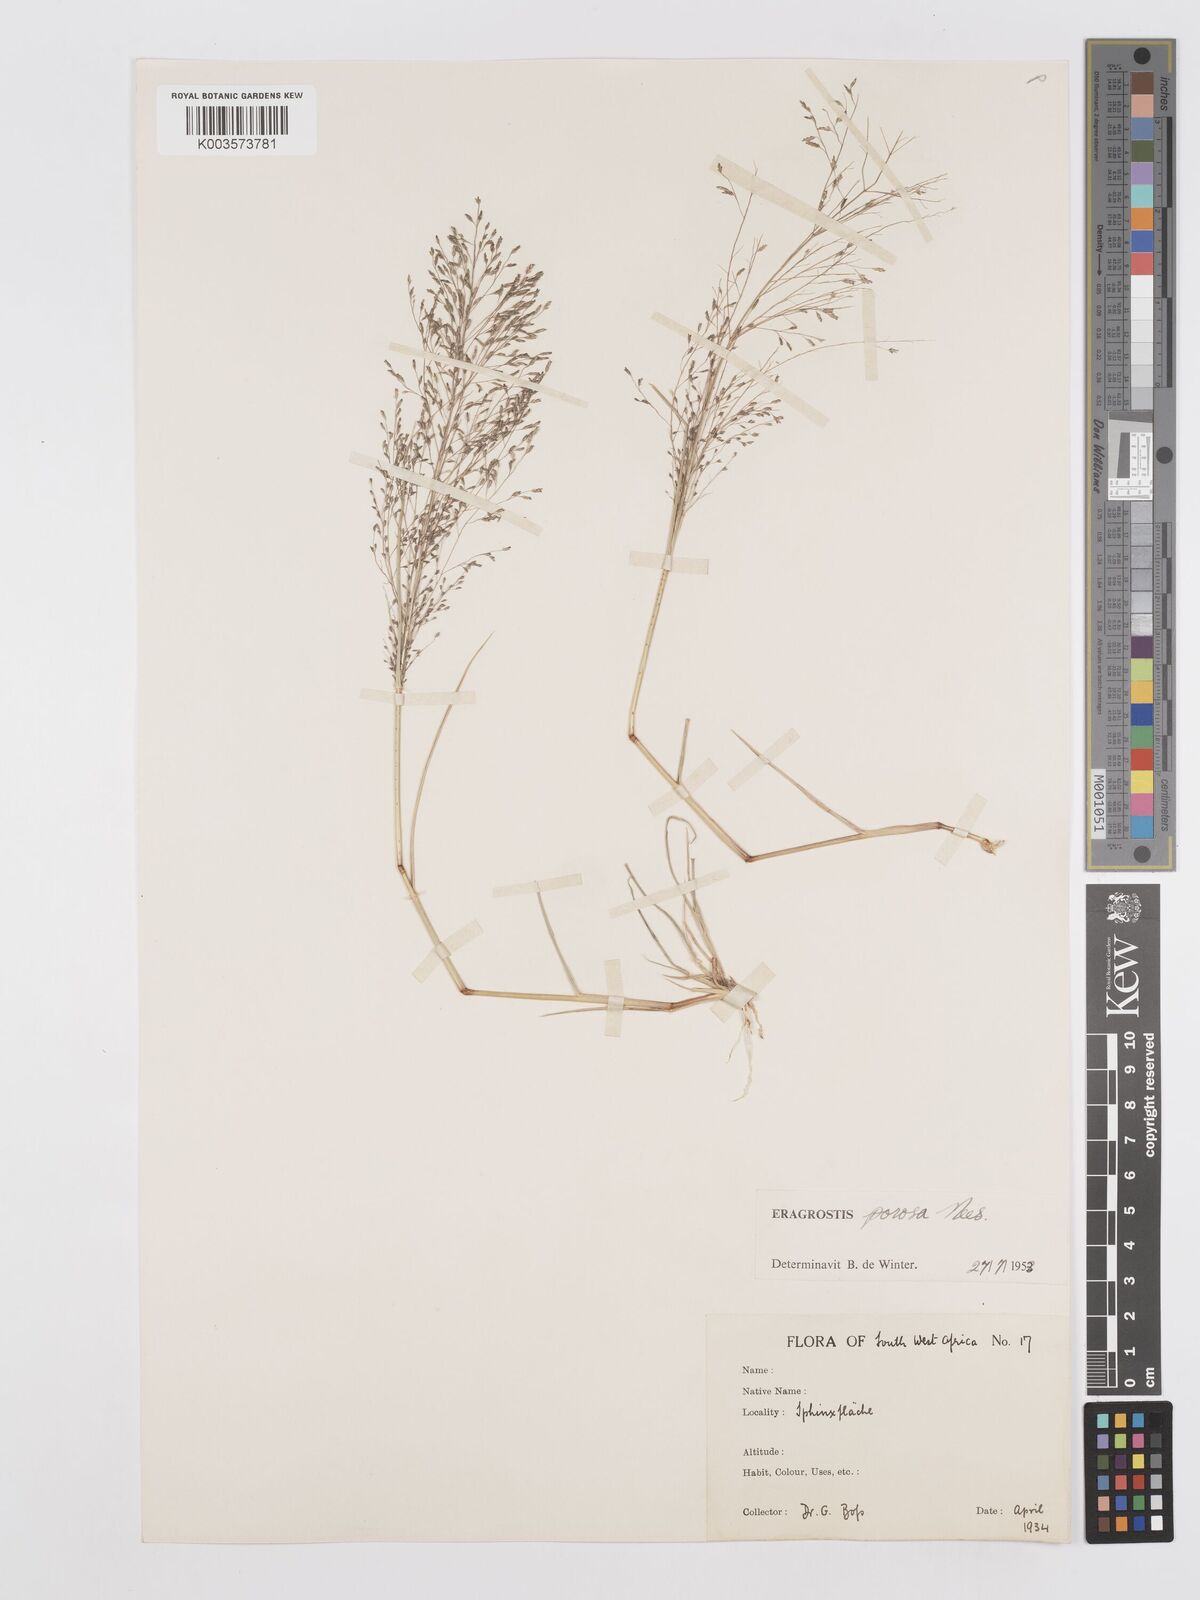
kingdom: Plantae
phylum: Tracheophyta
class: Liliopsida
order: Poales
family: Poaceae
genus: Eragrostis
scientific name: Eragrostis porosa
